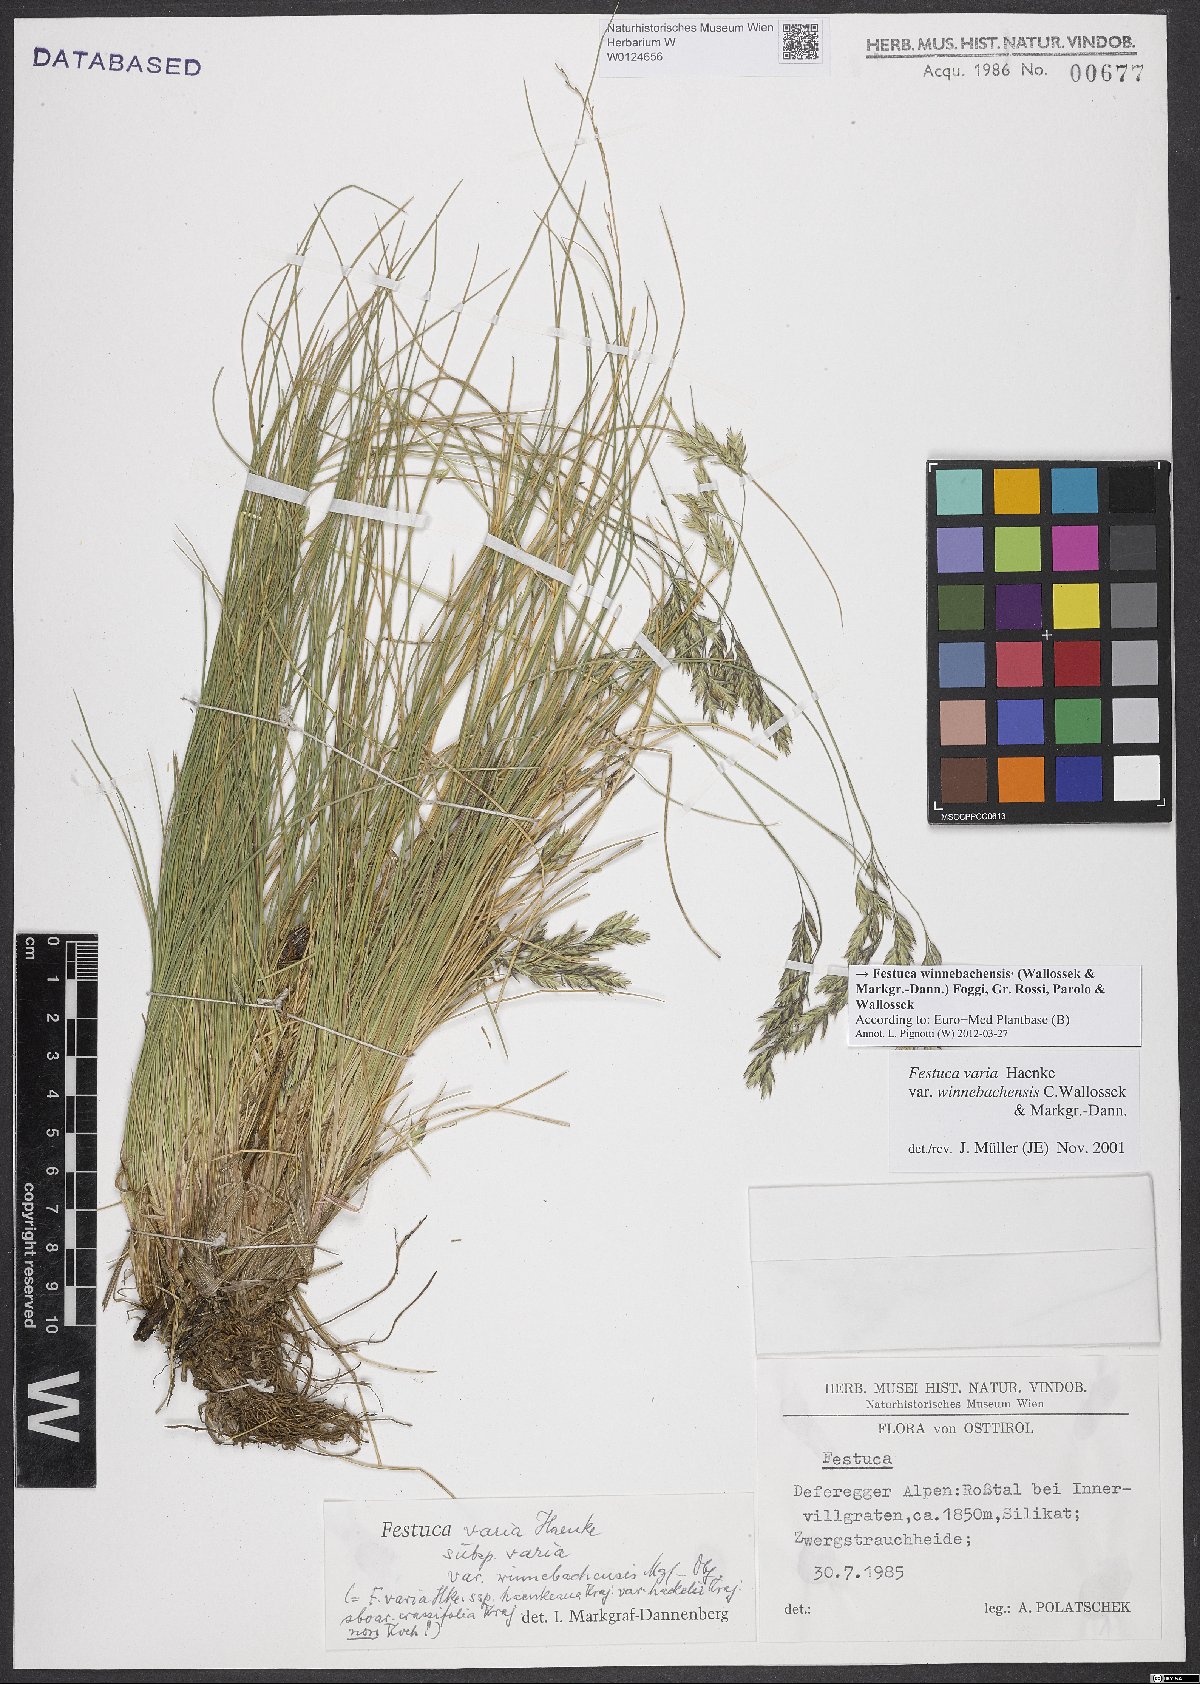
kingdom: Plantae
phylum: Tracheophyta
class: Liliopsida
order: Poales
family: Poaceae
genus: Festuca
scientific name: Festuca pseudovaria
